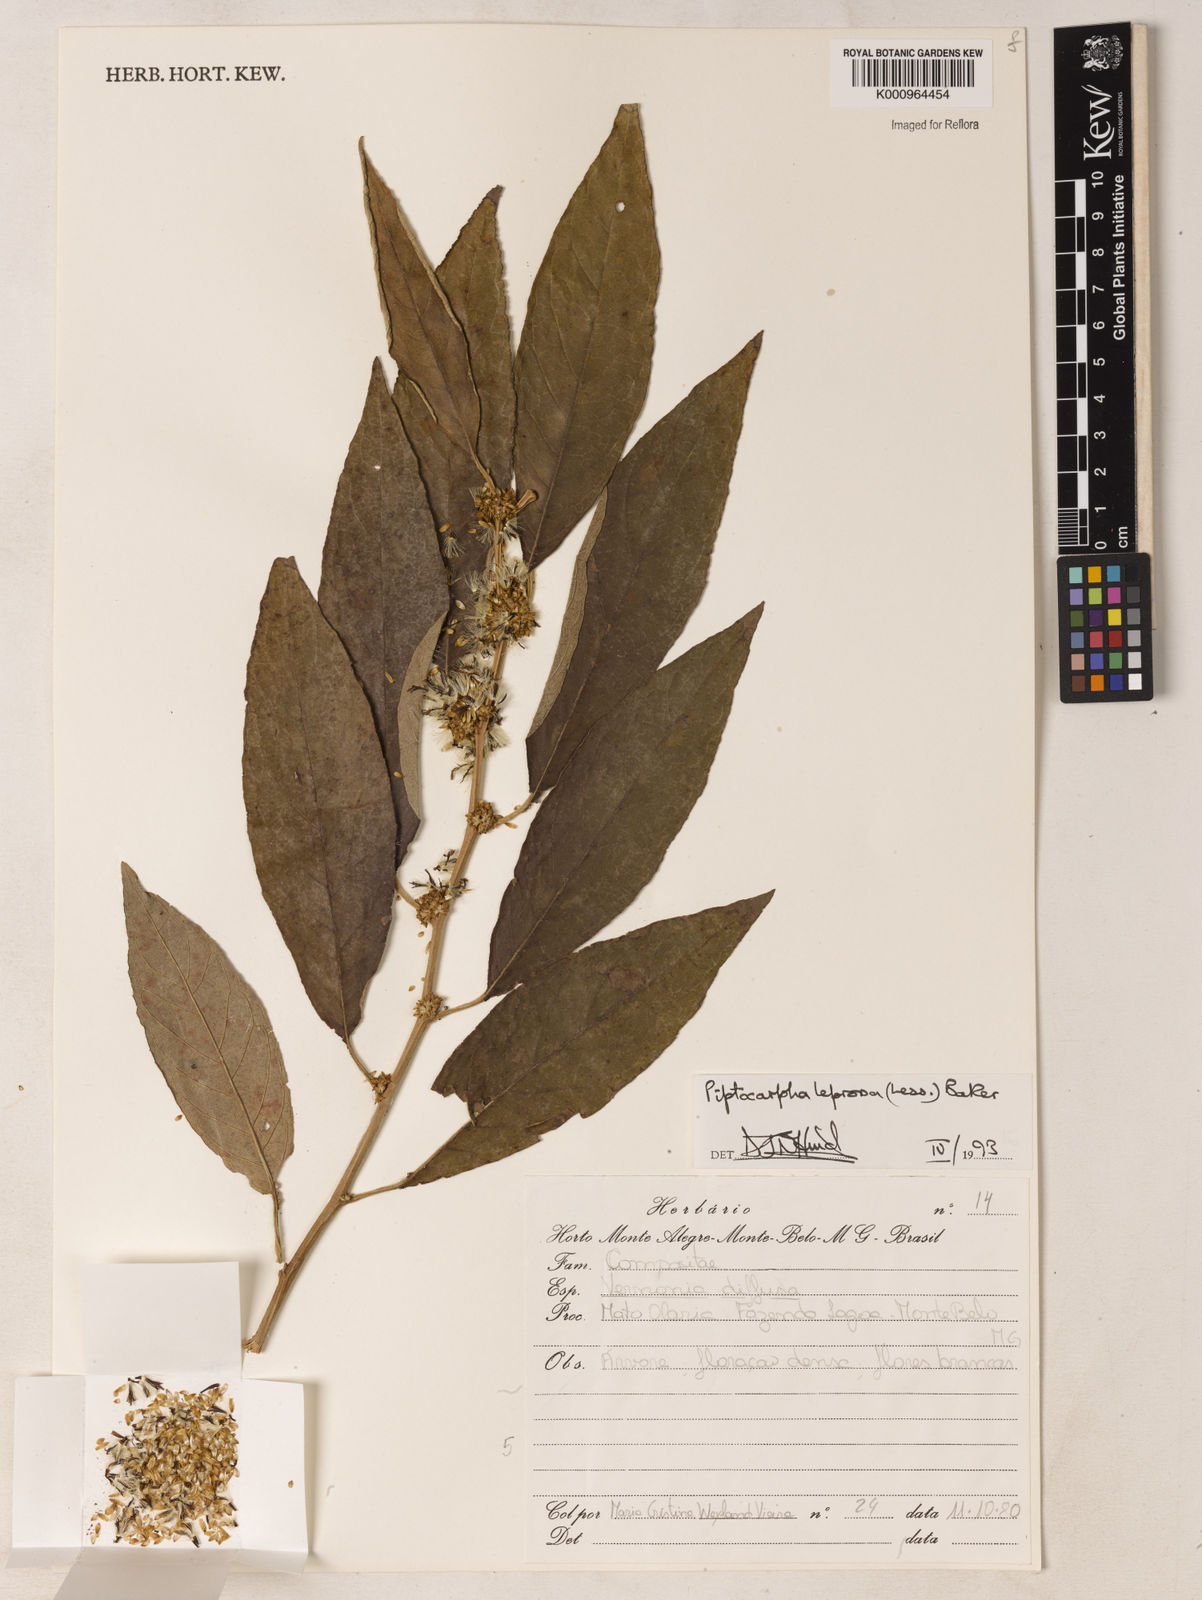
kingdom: Plantae
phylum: Tracheophyta
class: Magnoliopsida
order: Asterales
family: Asteraceae
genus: Piptocarpha
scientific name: Piptocarpha leprosa
